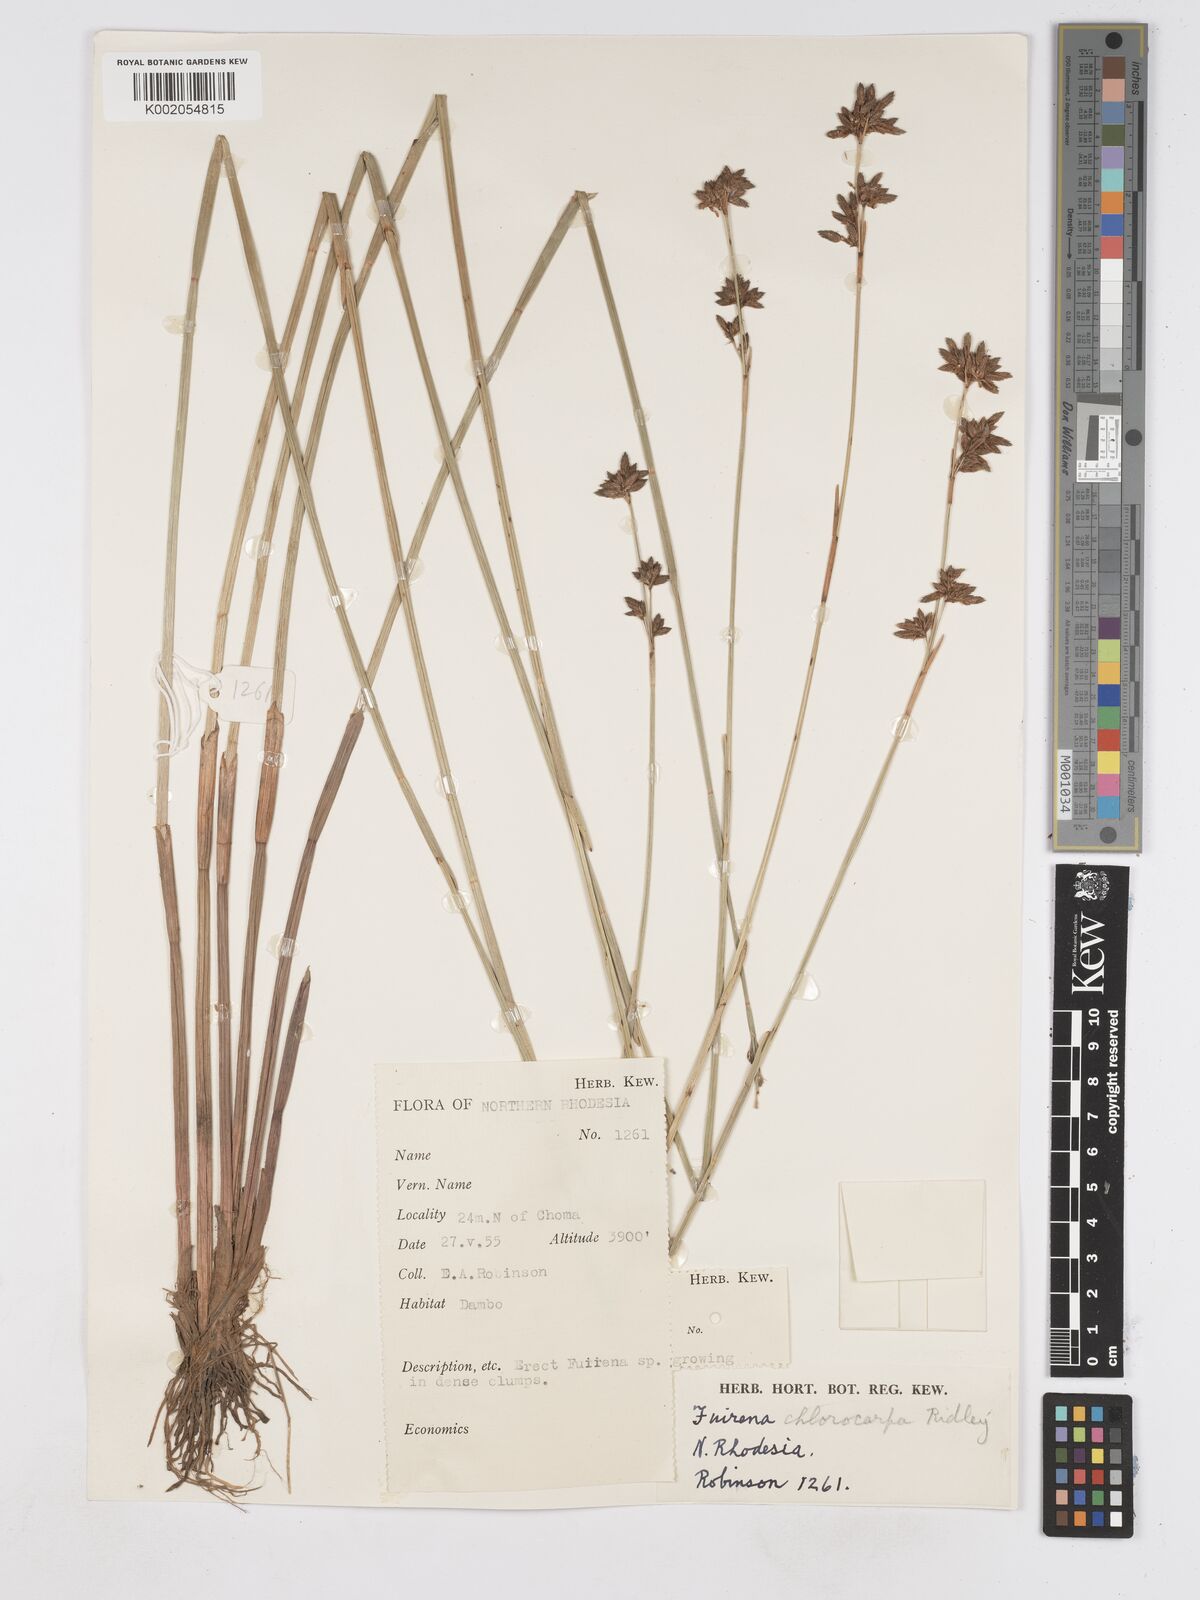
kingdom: Plantae
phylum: Tracheophyta
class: Liliopsida
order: Poales
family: Cyperaceae
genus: Fuirena
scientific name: Fuirena stricta
